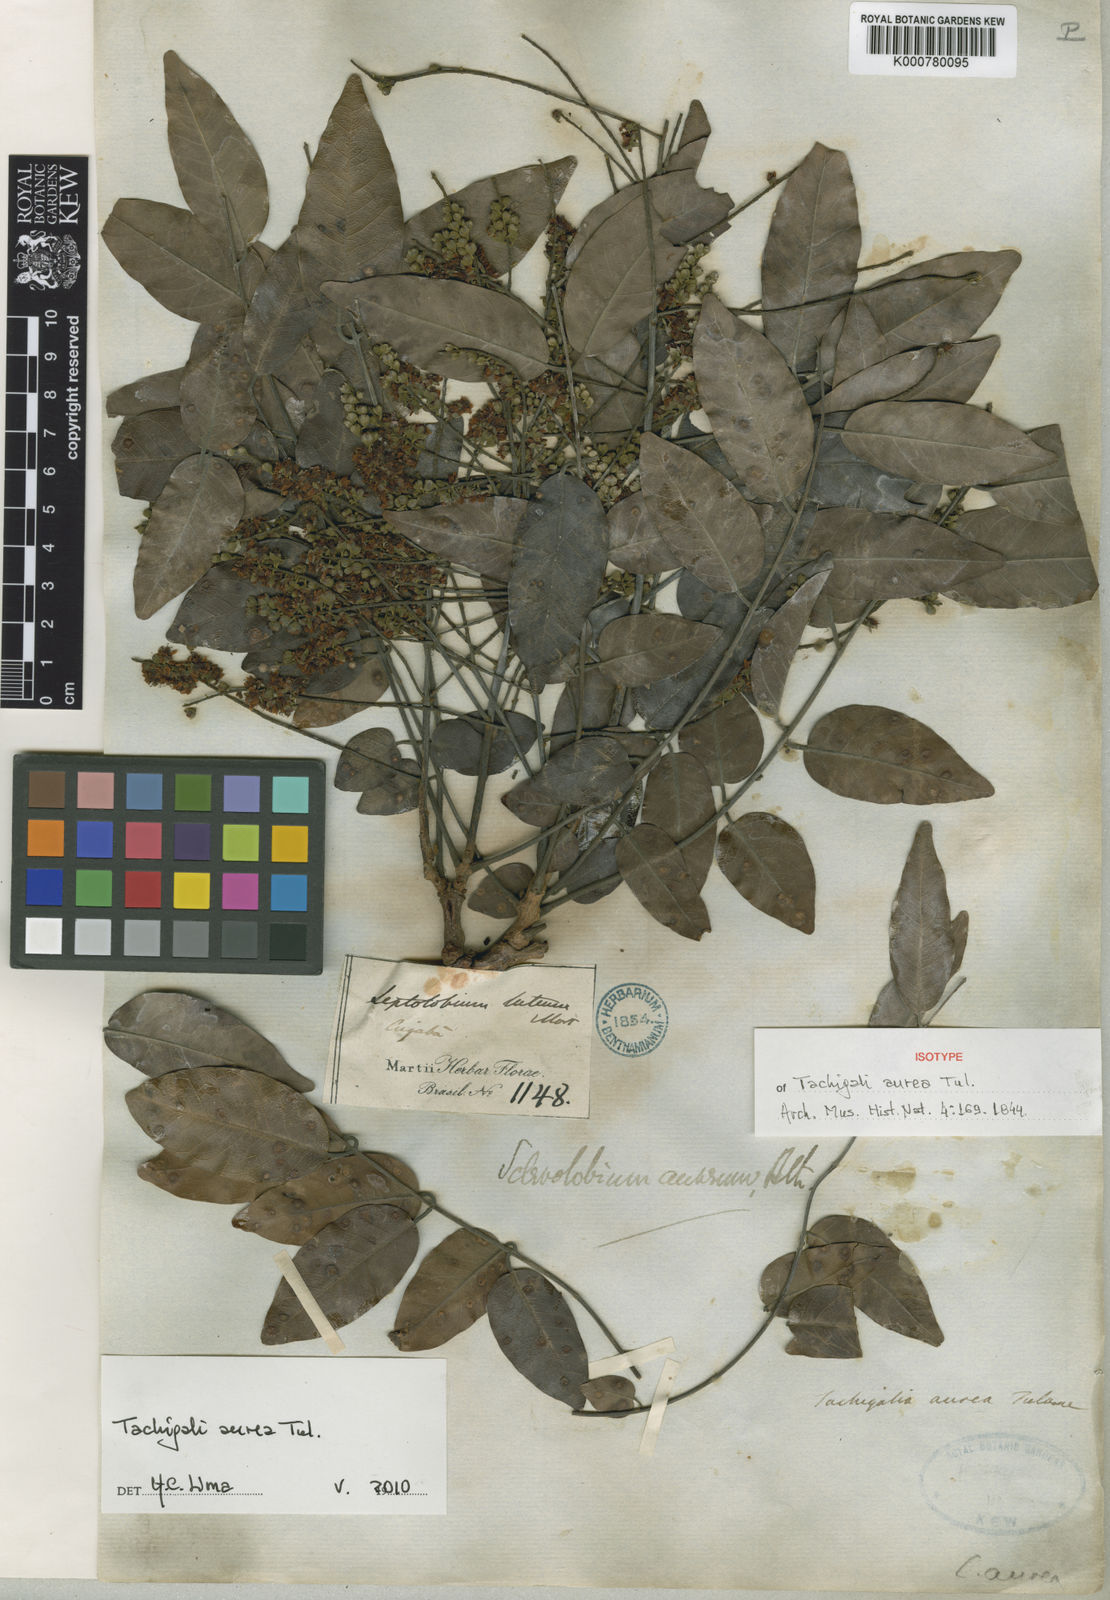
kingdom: Plantae
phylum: Tracheophyta
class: Magnoliopsida
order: Fabales
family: Fabaceae
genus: Tachigali
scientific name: Tachigali aurea
